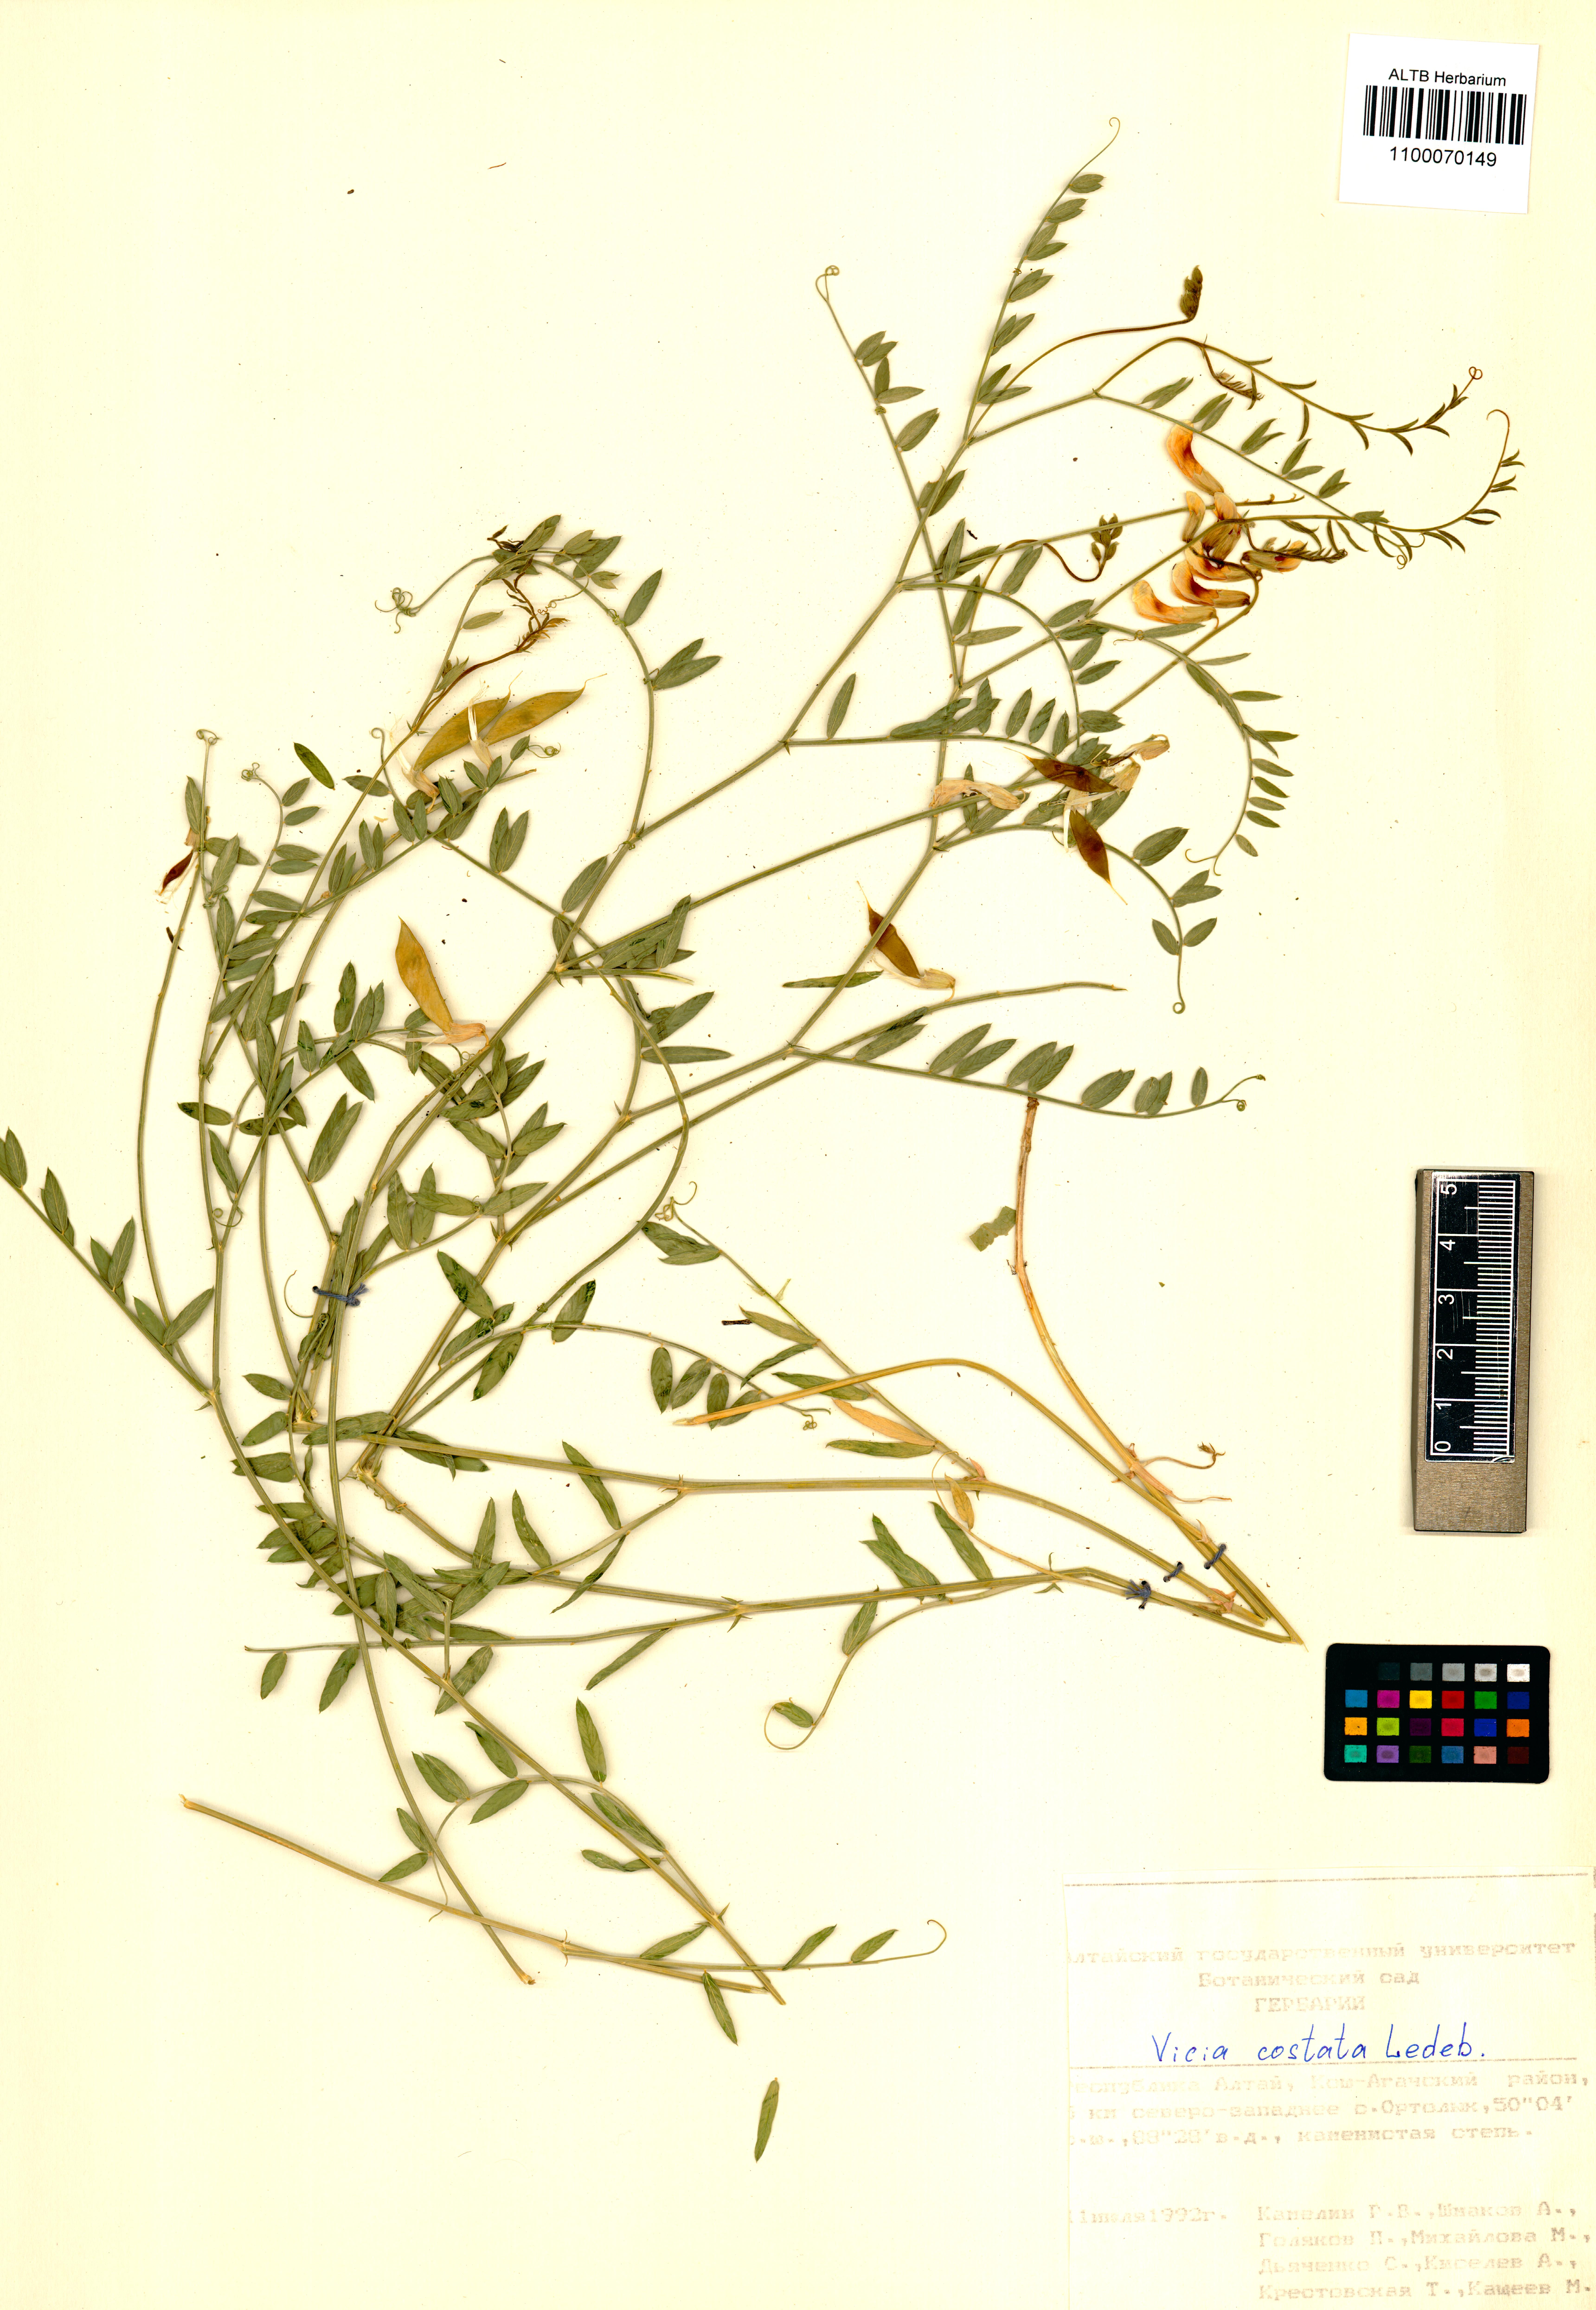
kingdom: Plantae
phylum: Tracheophyta
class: Magnoliopsida
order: Fabales
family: Fabaceae
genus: Vicia
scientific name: Vicia costata
